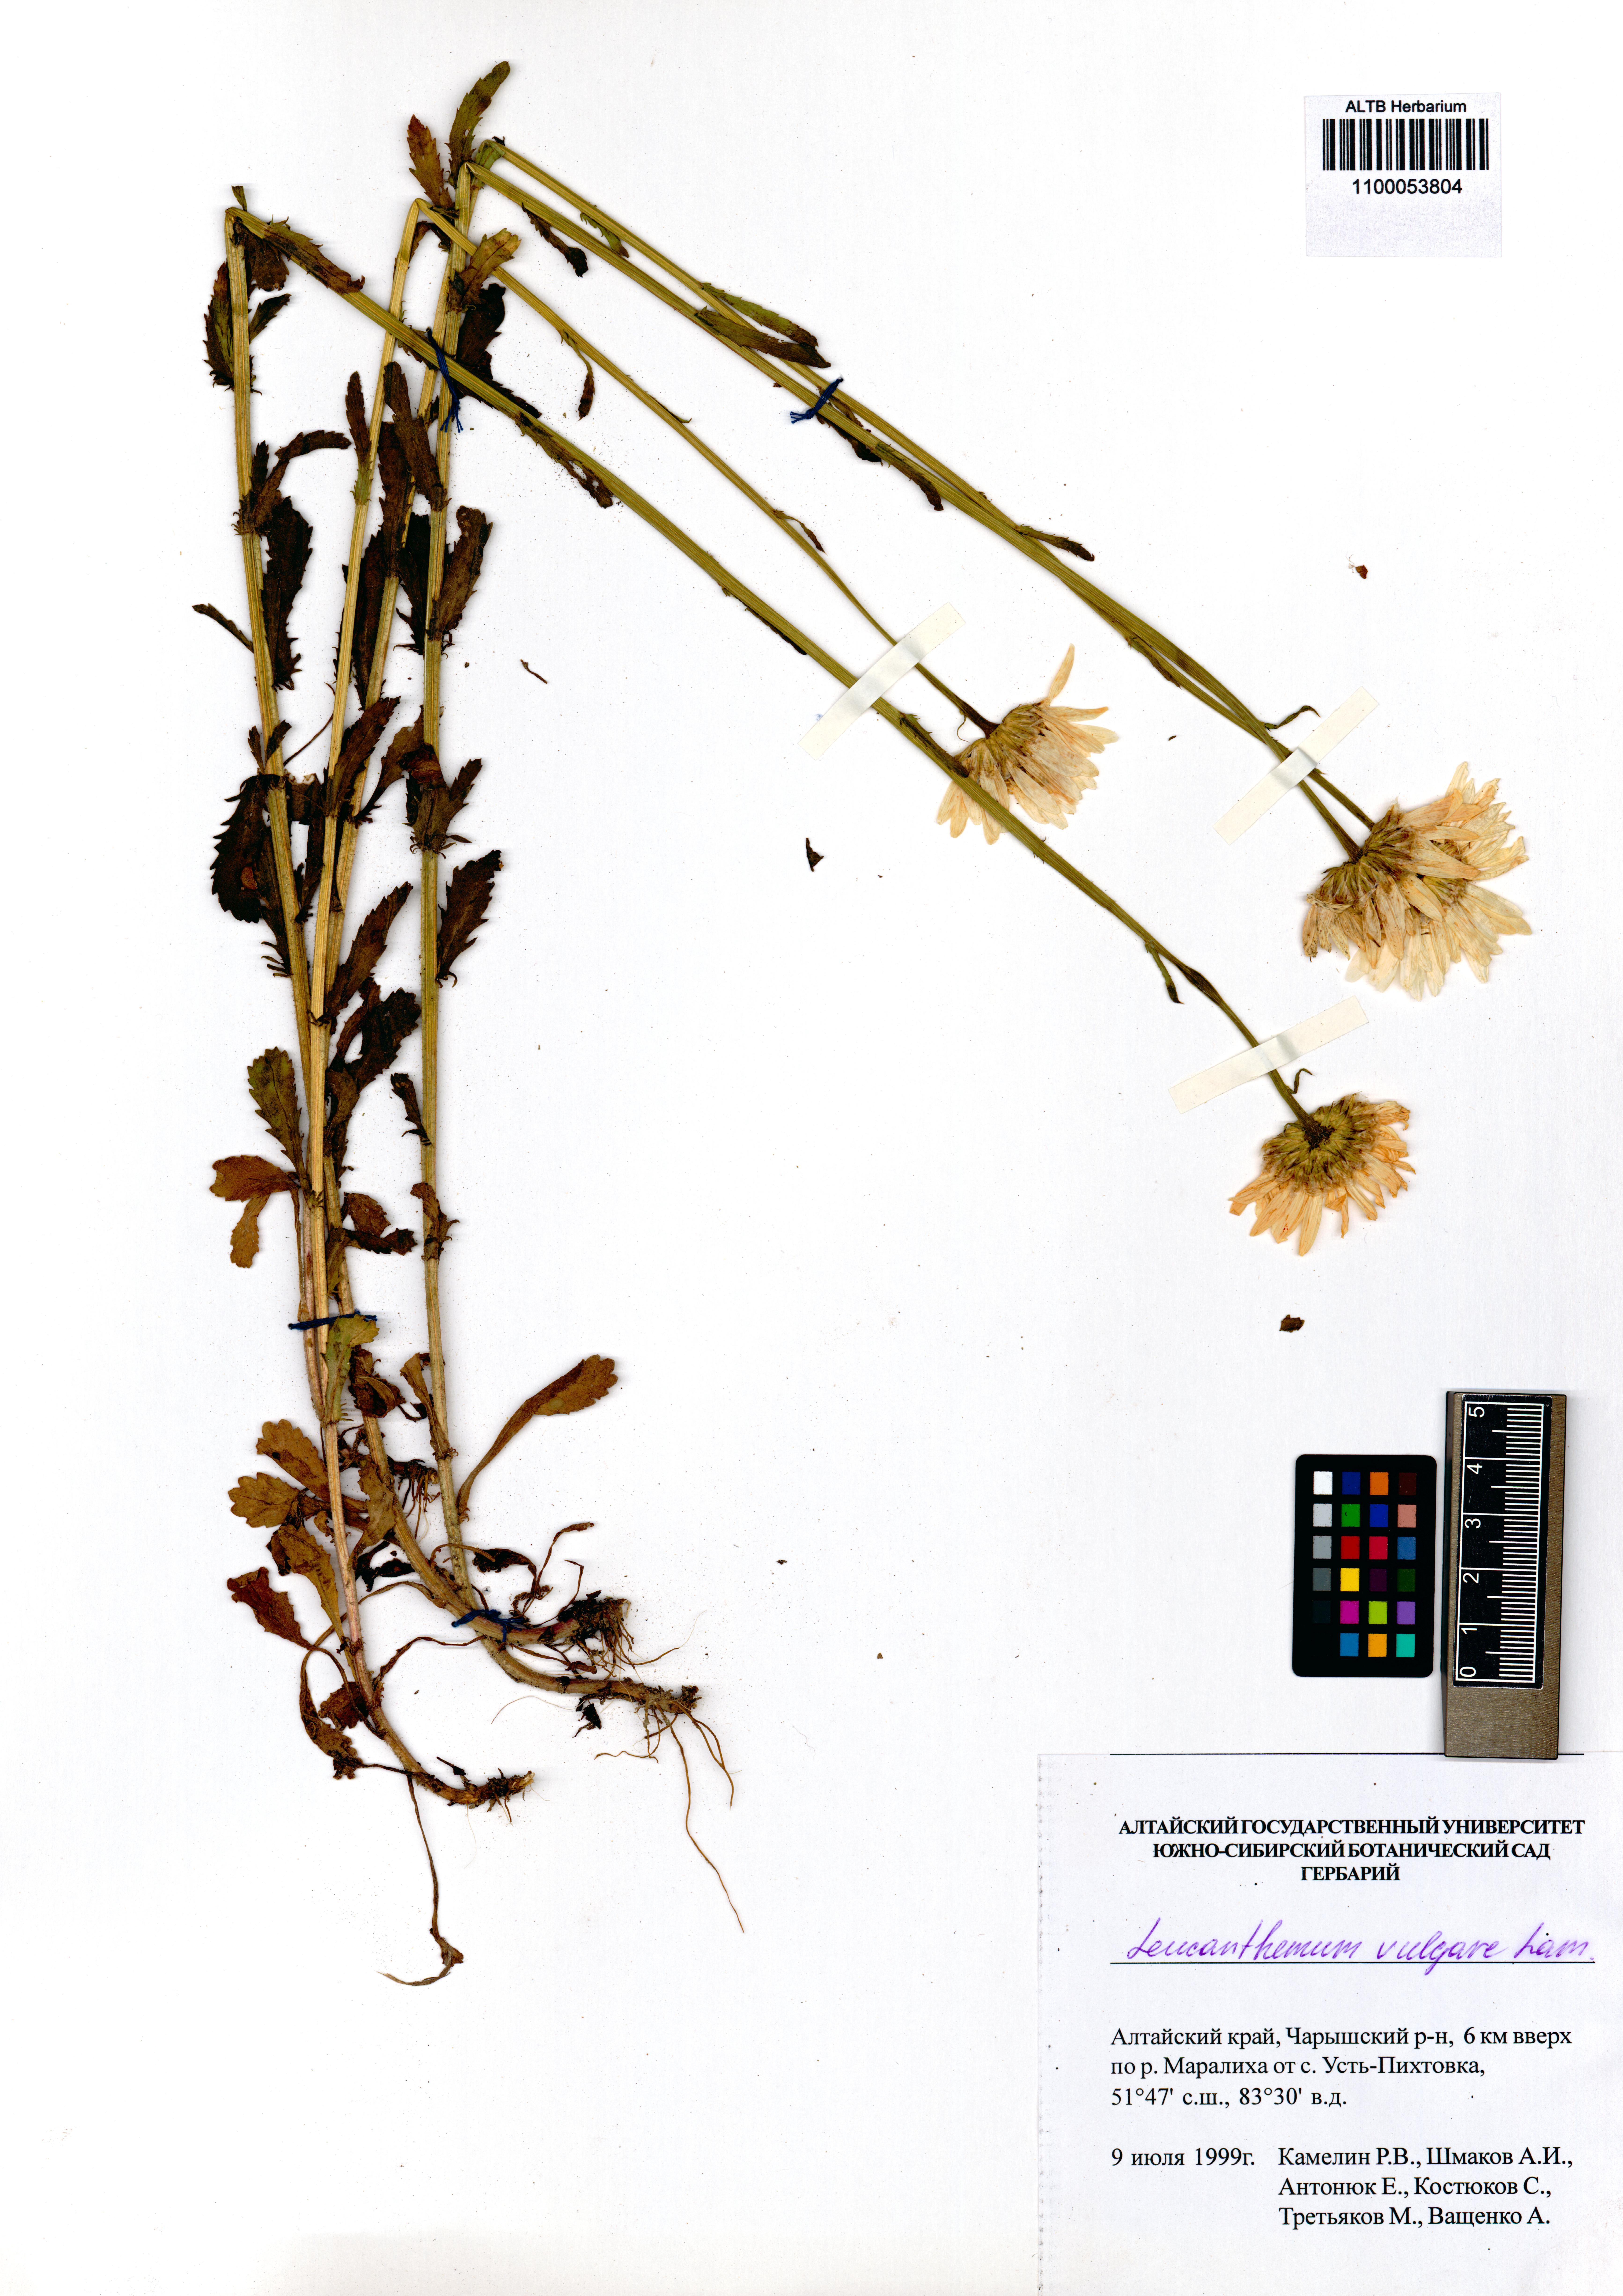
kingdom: Plantae
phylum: Tracheophyta
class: Magnoliopsida
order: Asterales
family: Asteraceae
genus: Leucanthemum
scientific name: Leucanthemum vulgare
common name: Oxeye daisy
